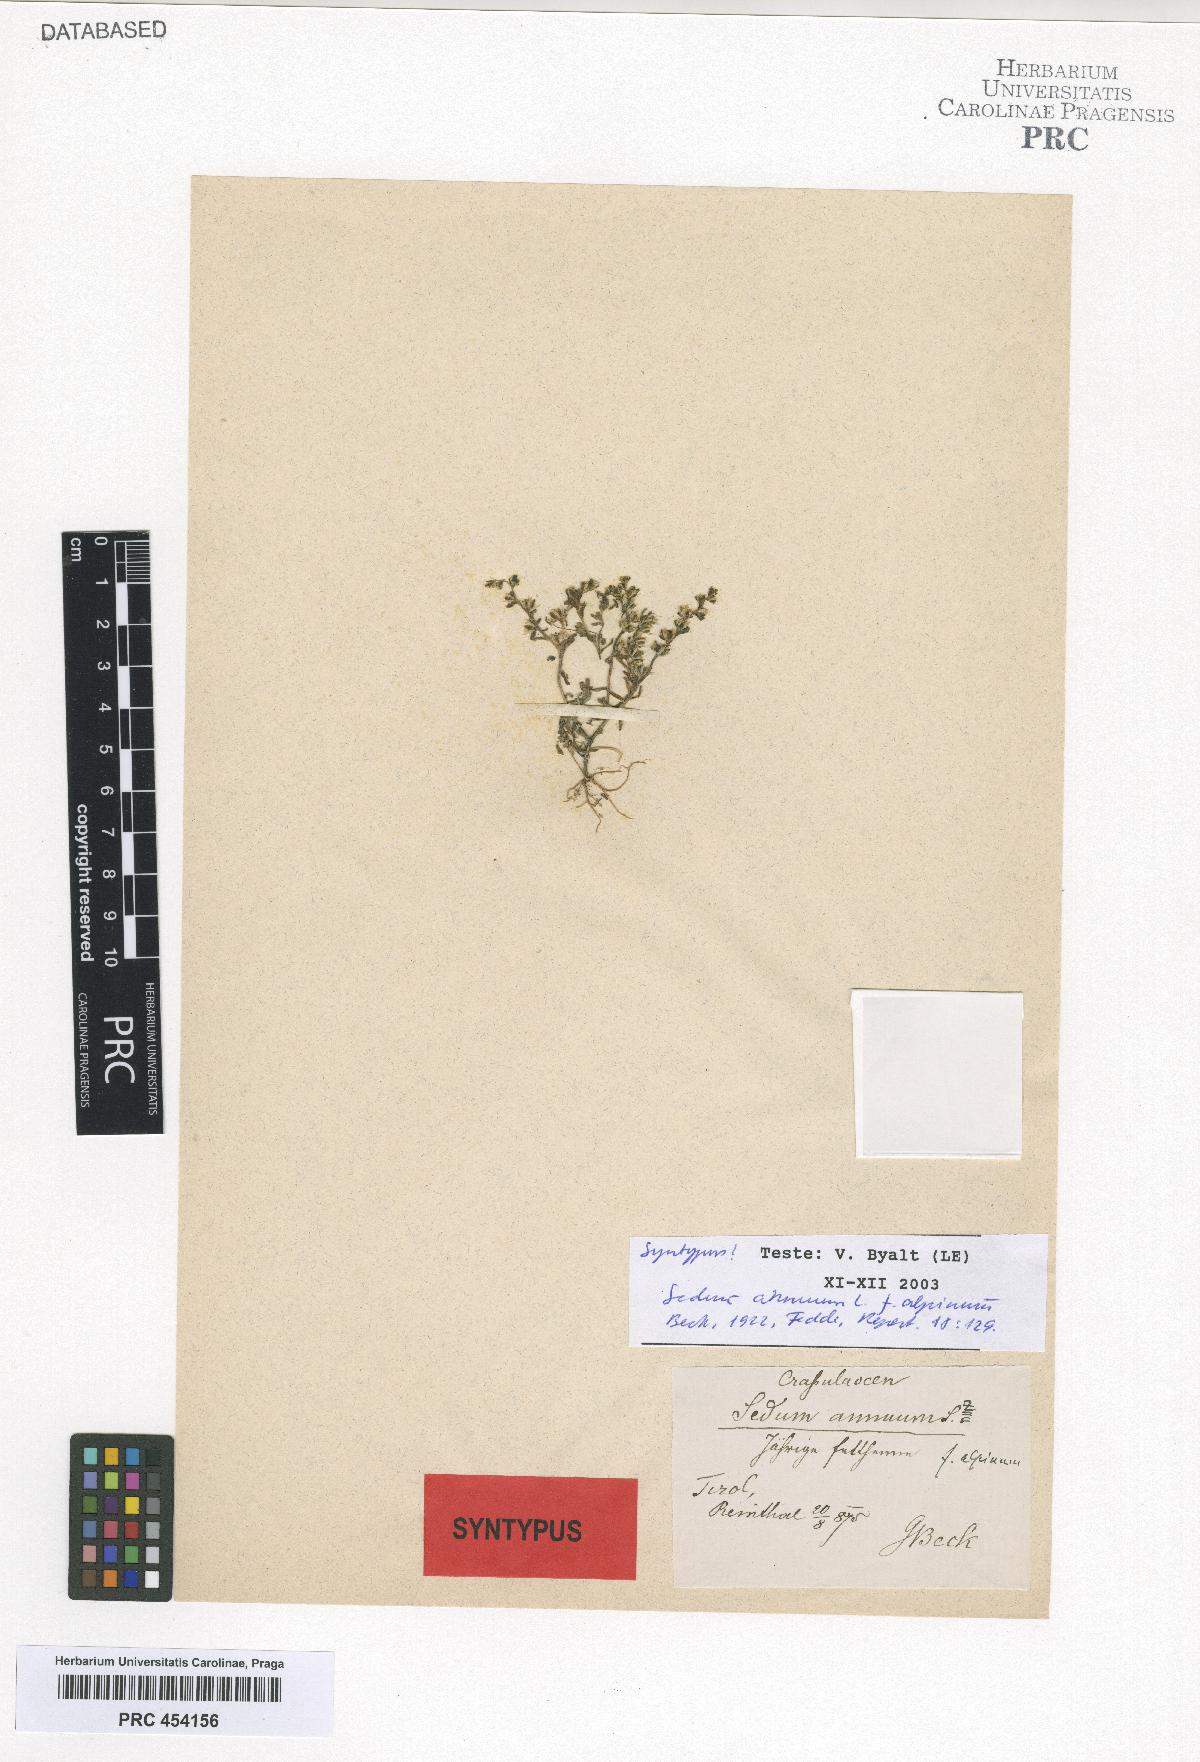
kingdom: Plantae
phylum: Tracheophyta
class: Magnoliopsida
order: Saxifragales
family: Crassulaceae
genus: Sedum
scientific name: Sedum annuum
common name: Annual stonecrop
